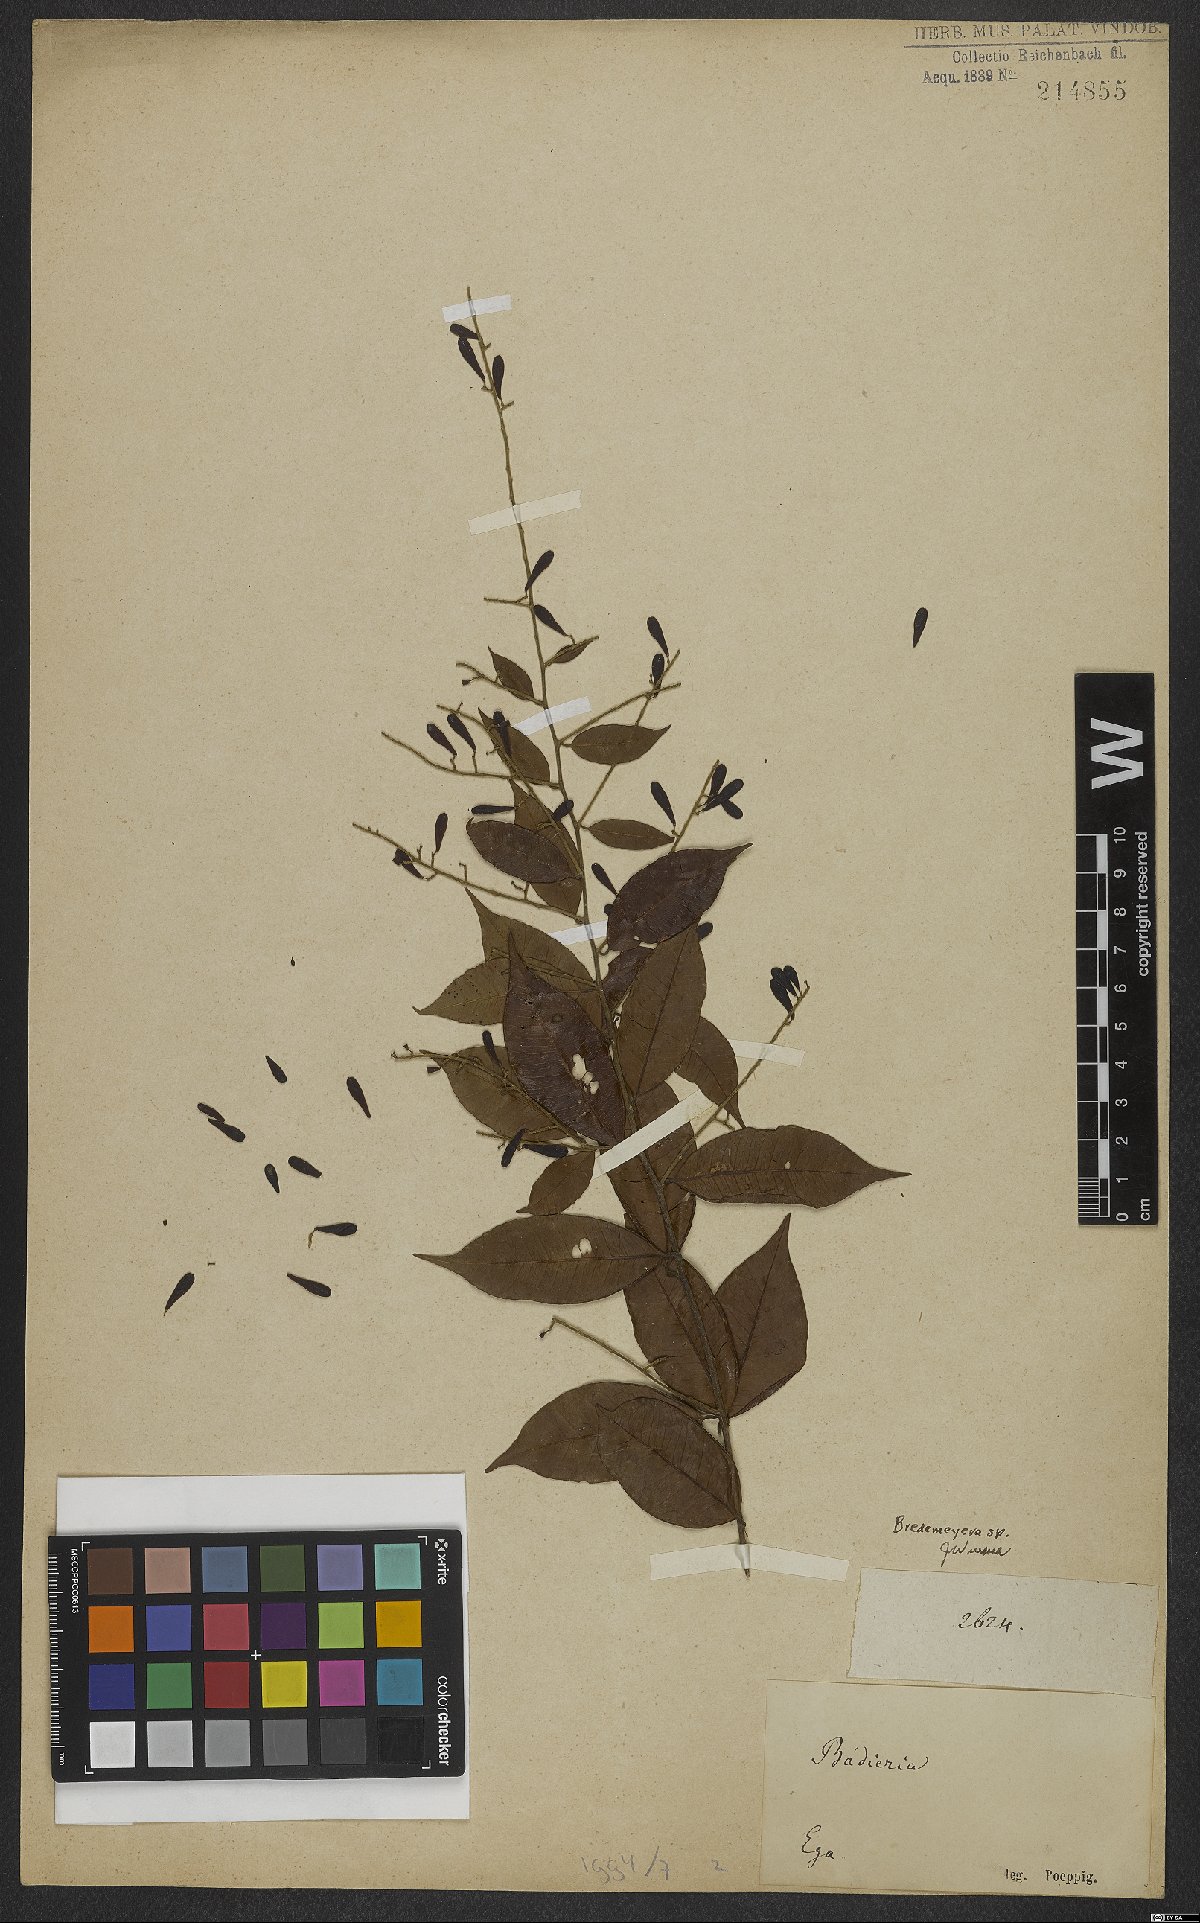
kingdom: Plantae
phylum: Tracheophyta
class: Magnoliopsida
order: Fabales
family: Polygalaceae
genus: Bredemeyera
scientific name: Bredemeyera
